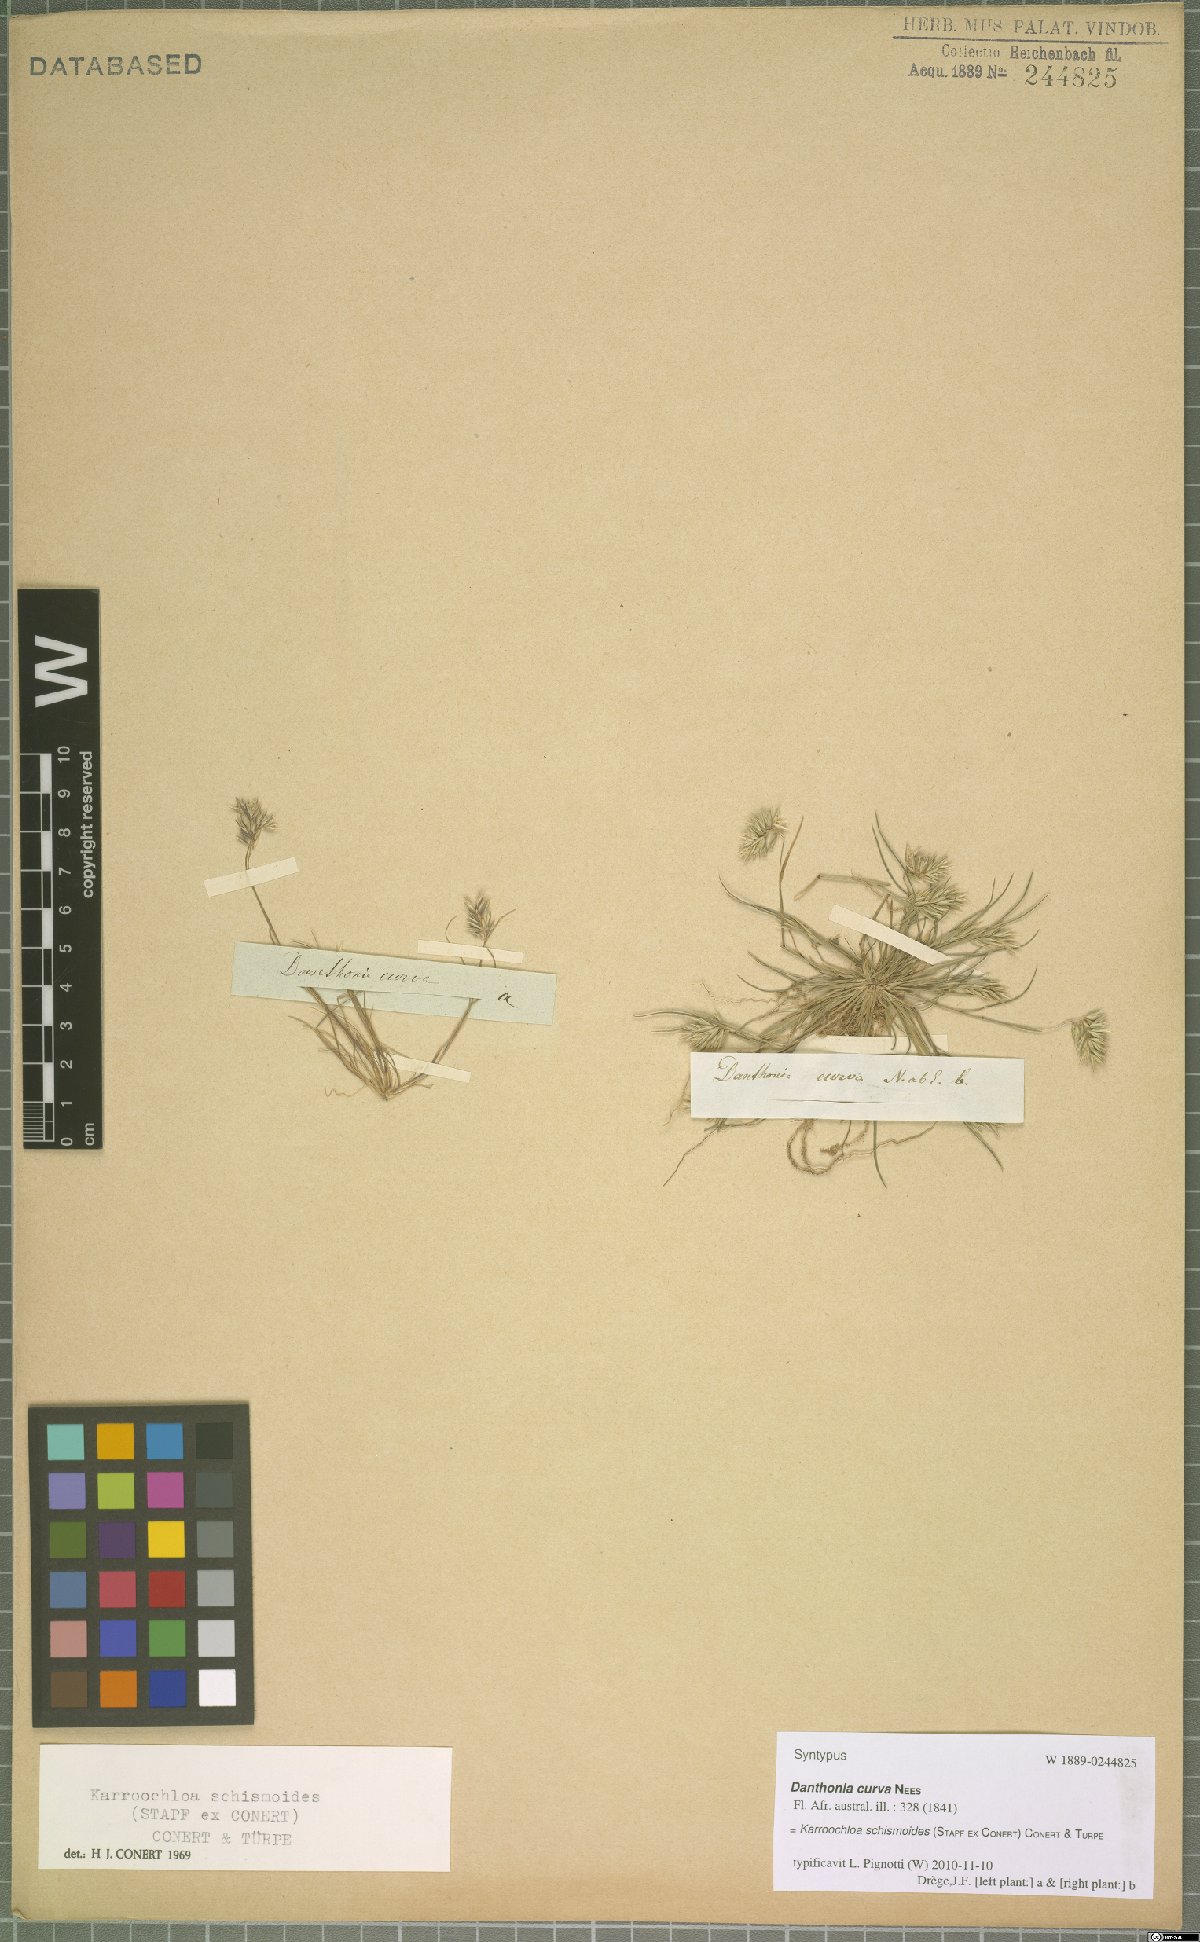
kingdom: Plantae
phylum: Tracheophyta
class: Liliopsida
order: Poales
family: Poaceae
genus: Schismus
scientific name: Schismus schismoides
